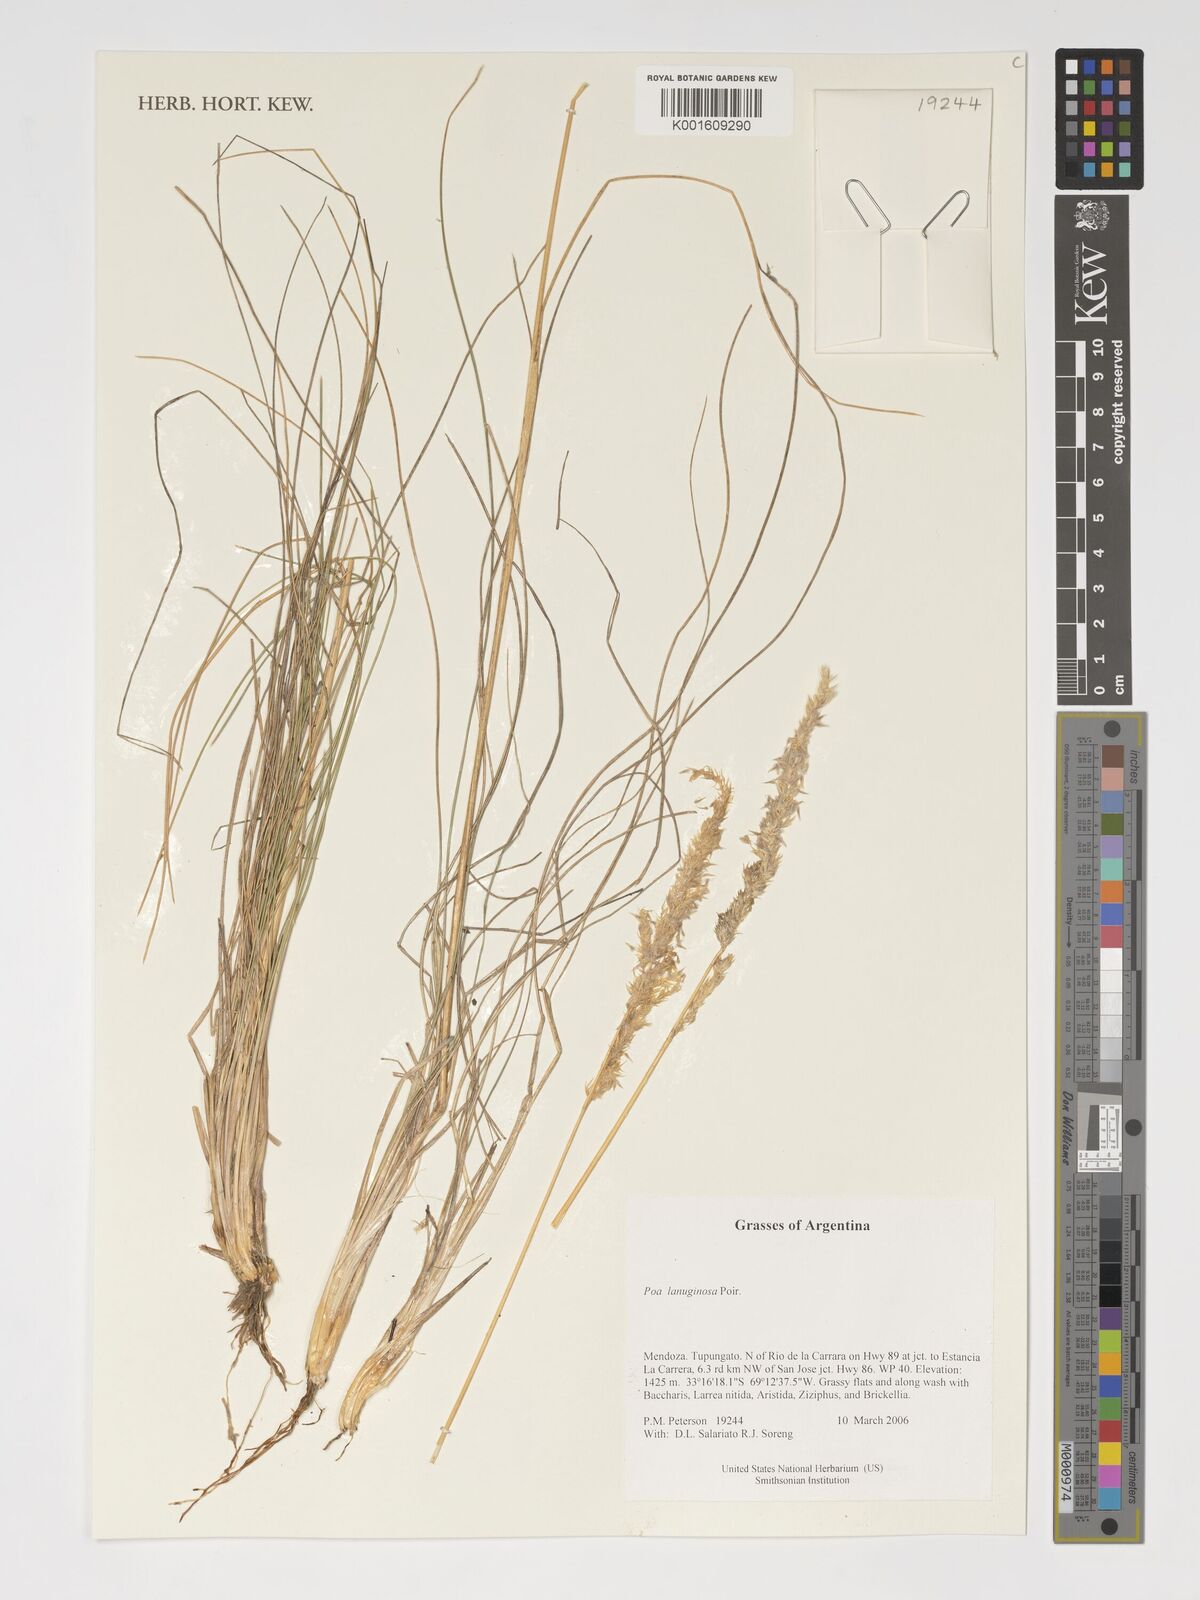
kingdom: Plantae
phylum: Tracheophyta
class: Liliopsida
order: Poales
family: Poaceae
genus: Poa
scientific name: Poa lanuginosa
